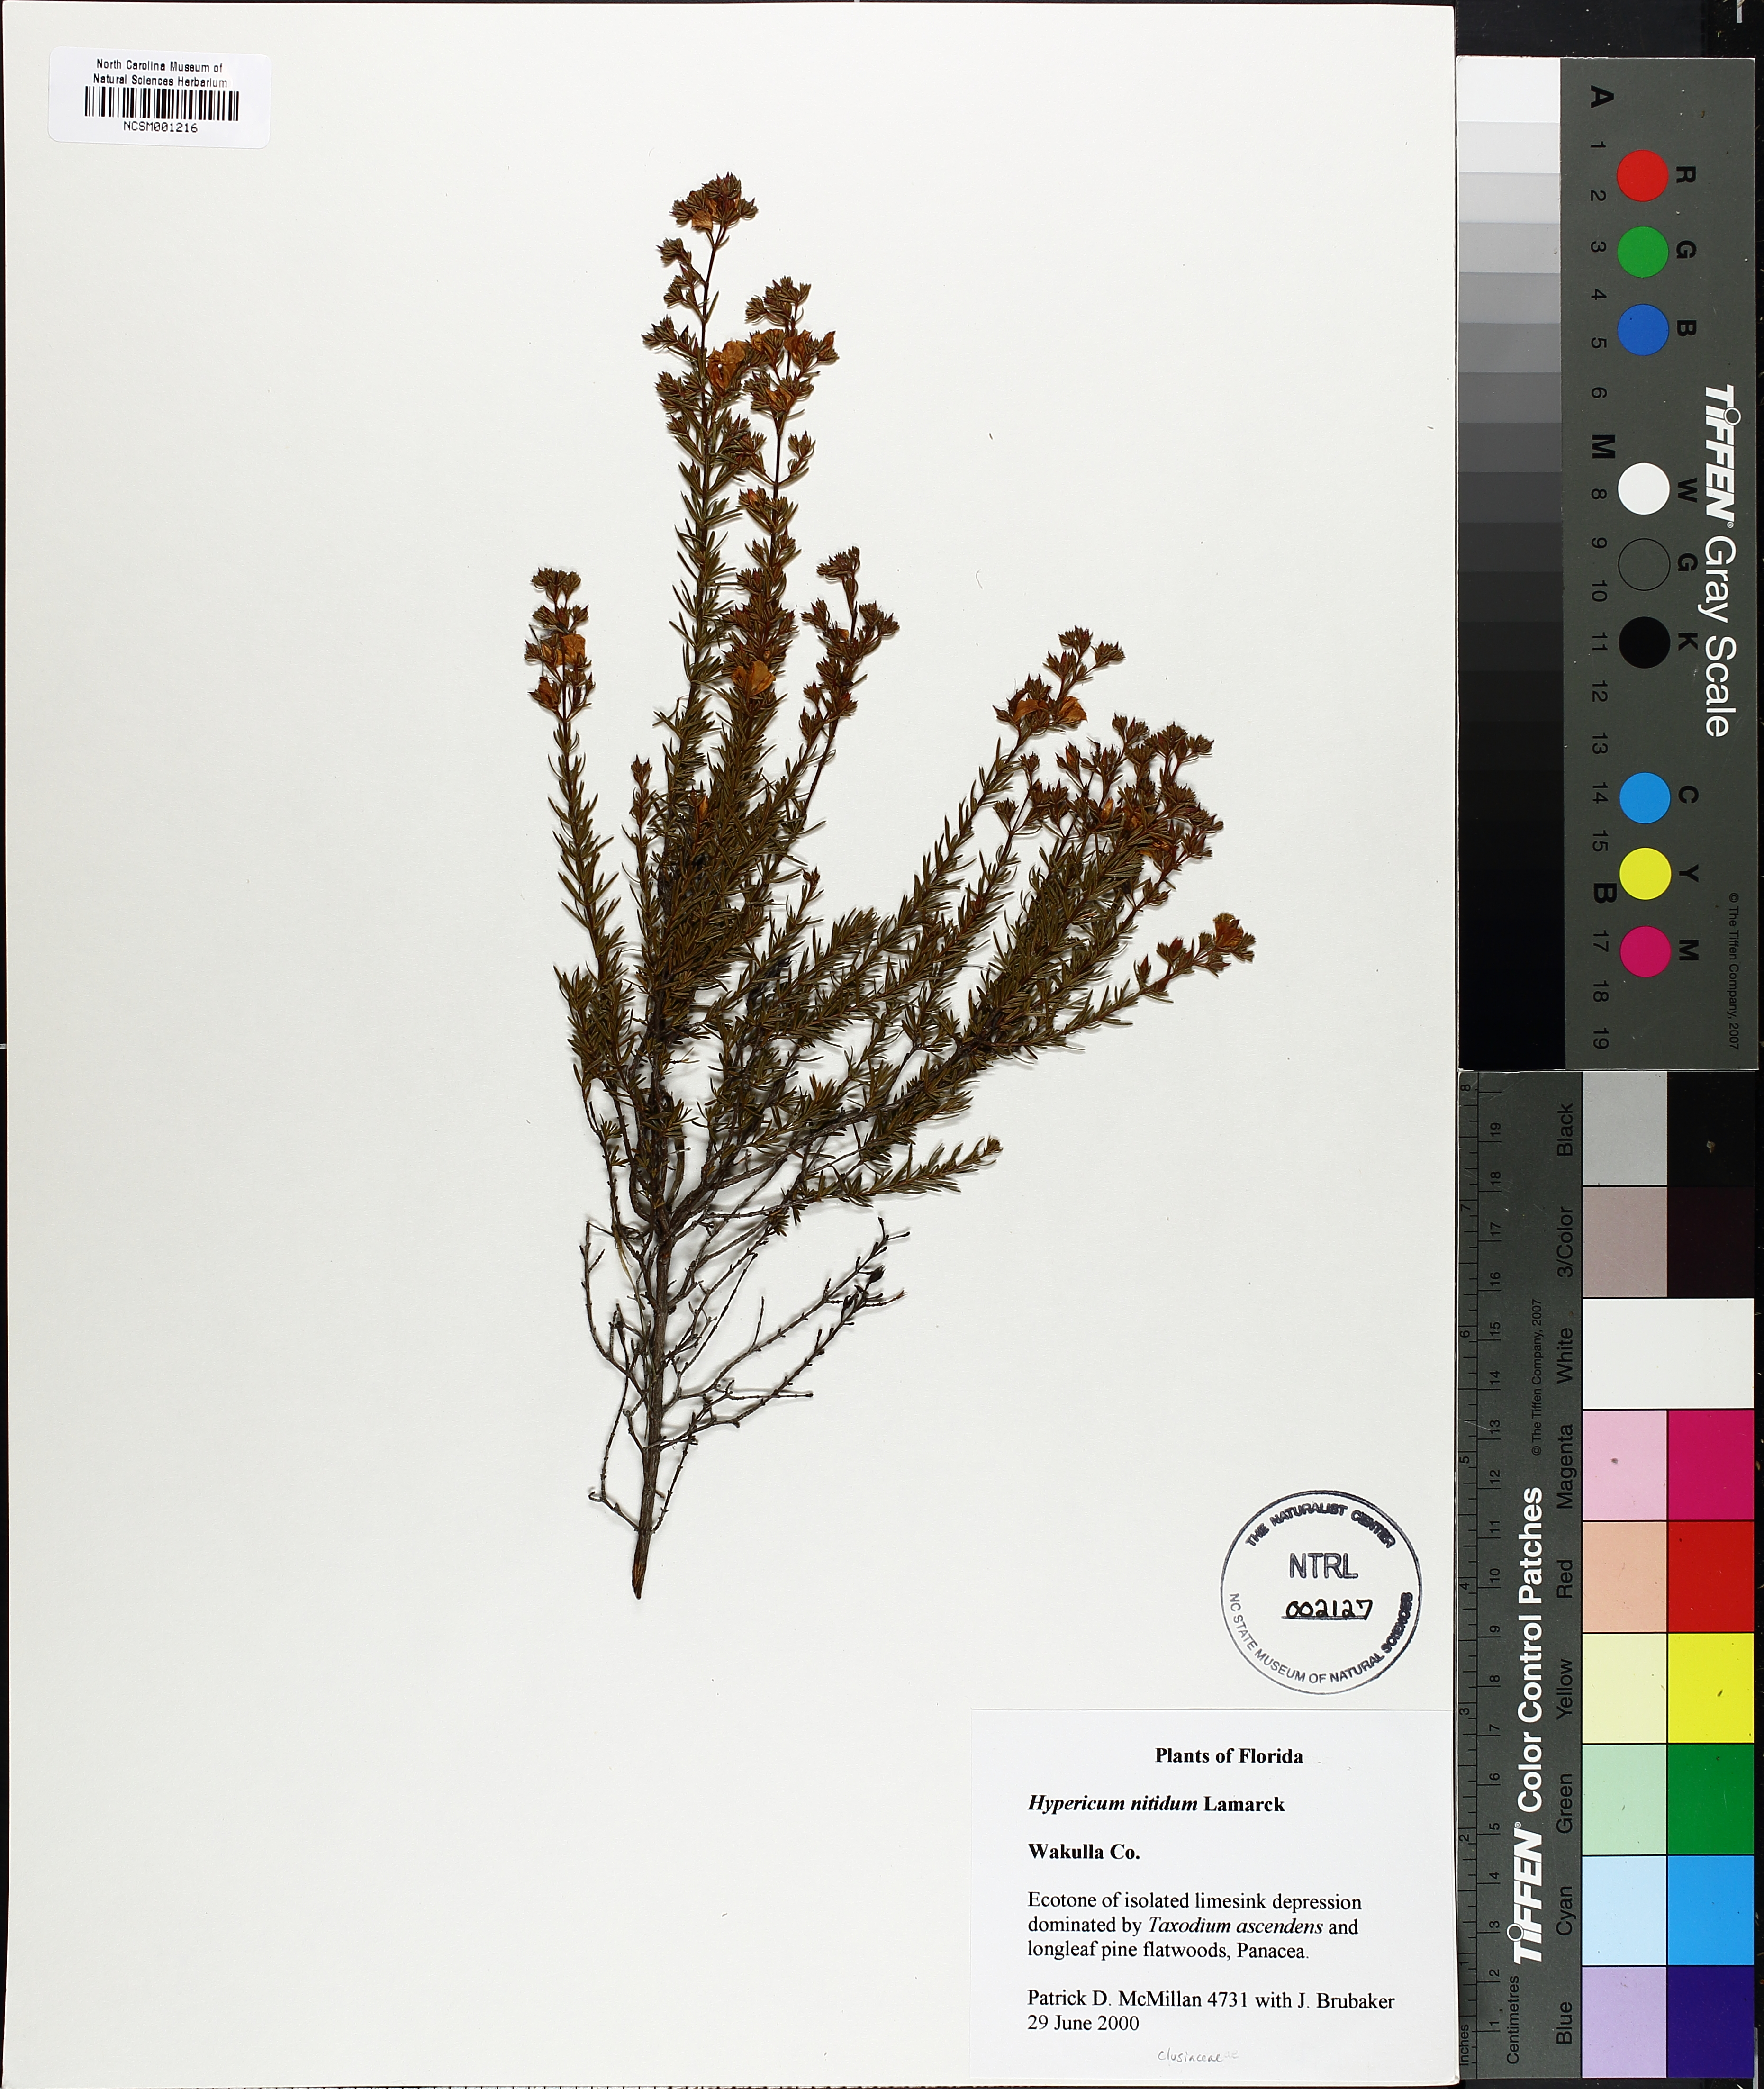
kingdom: Plantae
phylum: Tracheophyta
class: Magnoliopsida
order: Malpighiales
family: Hypericaceae
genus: Hypericum
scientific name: Hypericum nitidum
